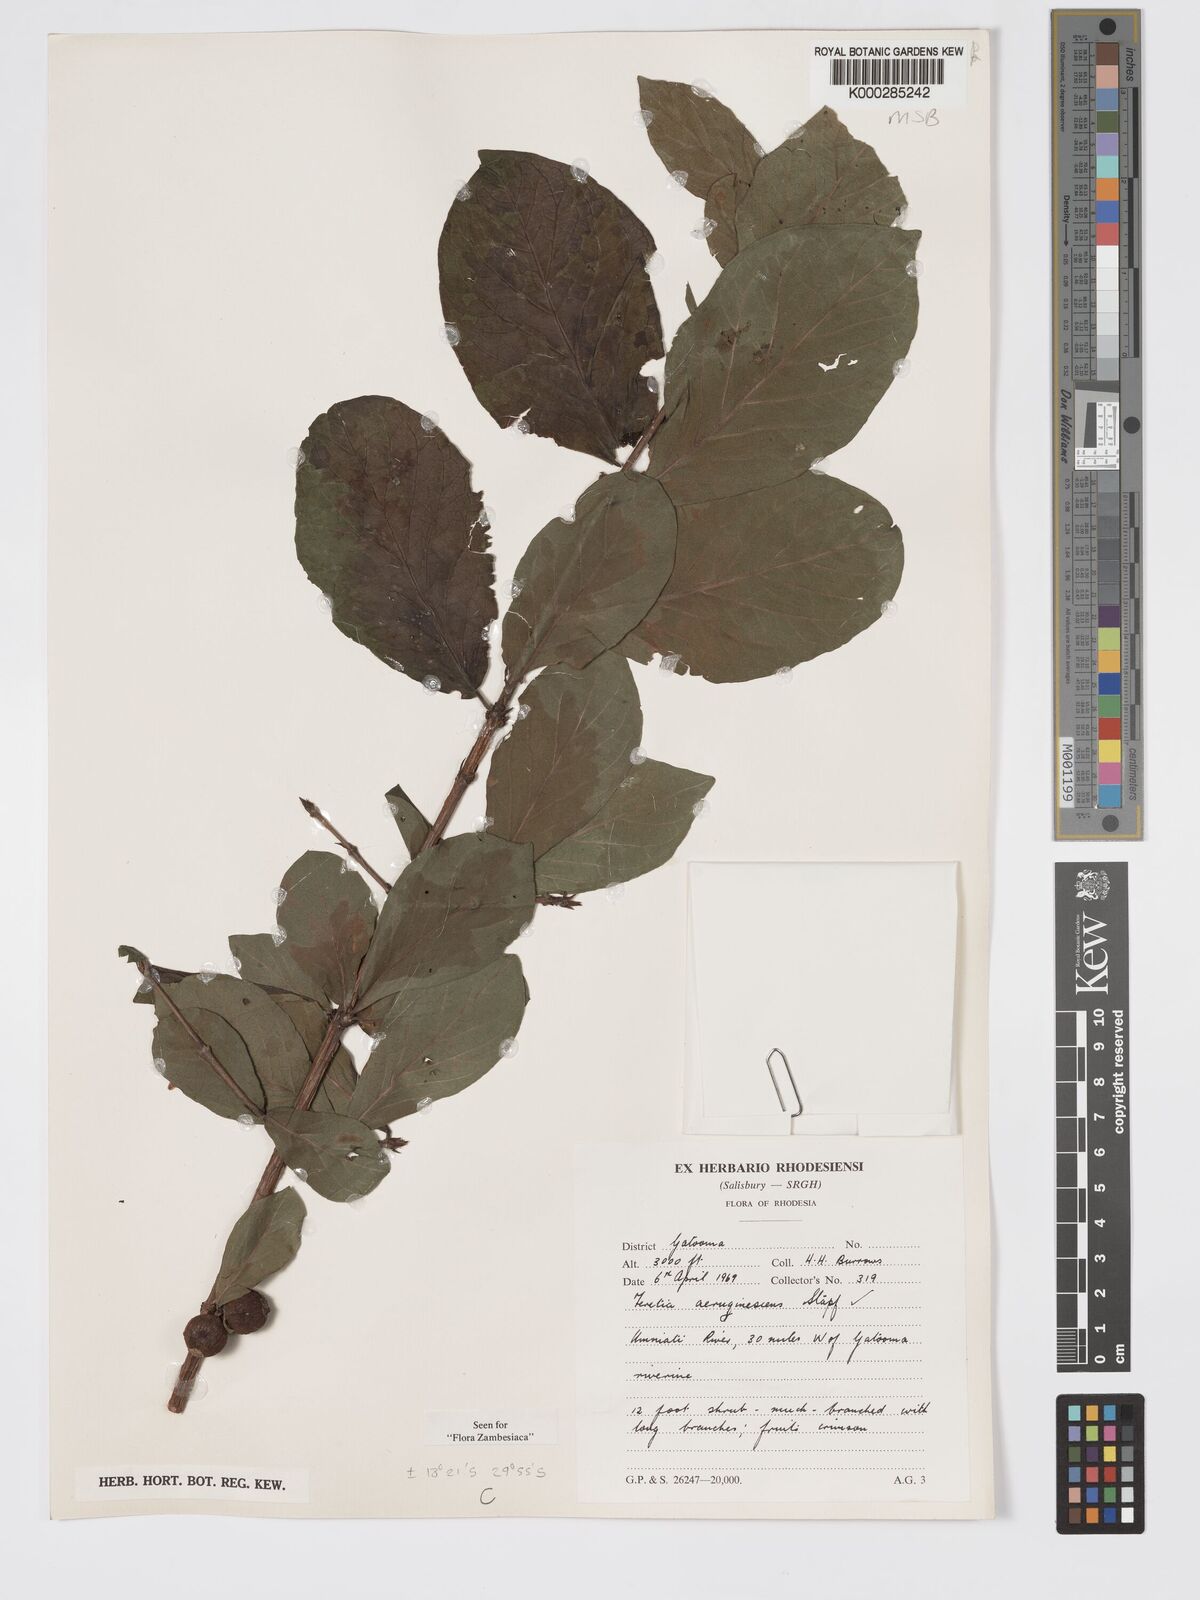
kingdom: Plantae
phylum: Tracheophyta
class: Magnoliopsida
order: Gentianales
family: Rubiaceae
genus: Feretia
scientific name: Feretia aeruginescens
